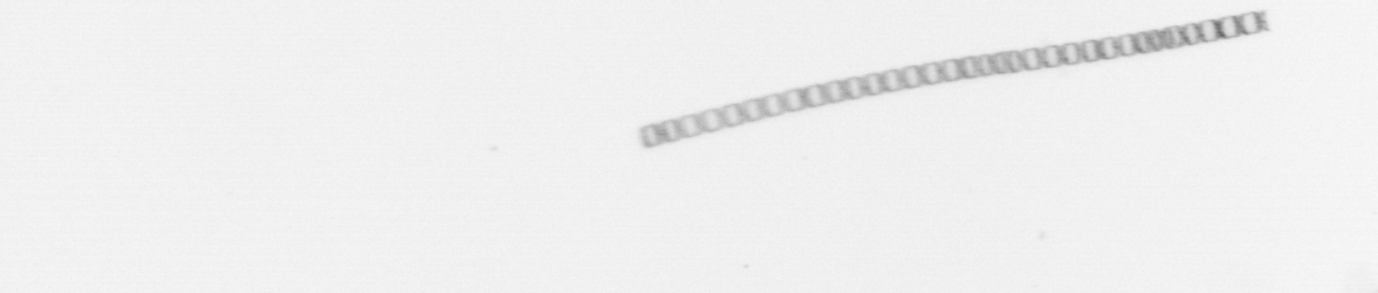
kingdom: Chromista
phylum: Ochrophyta
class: Bacillariophyceae
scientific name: Bacillariophyceae
